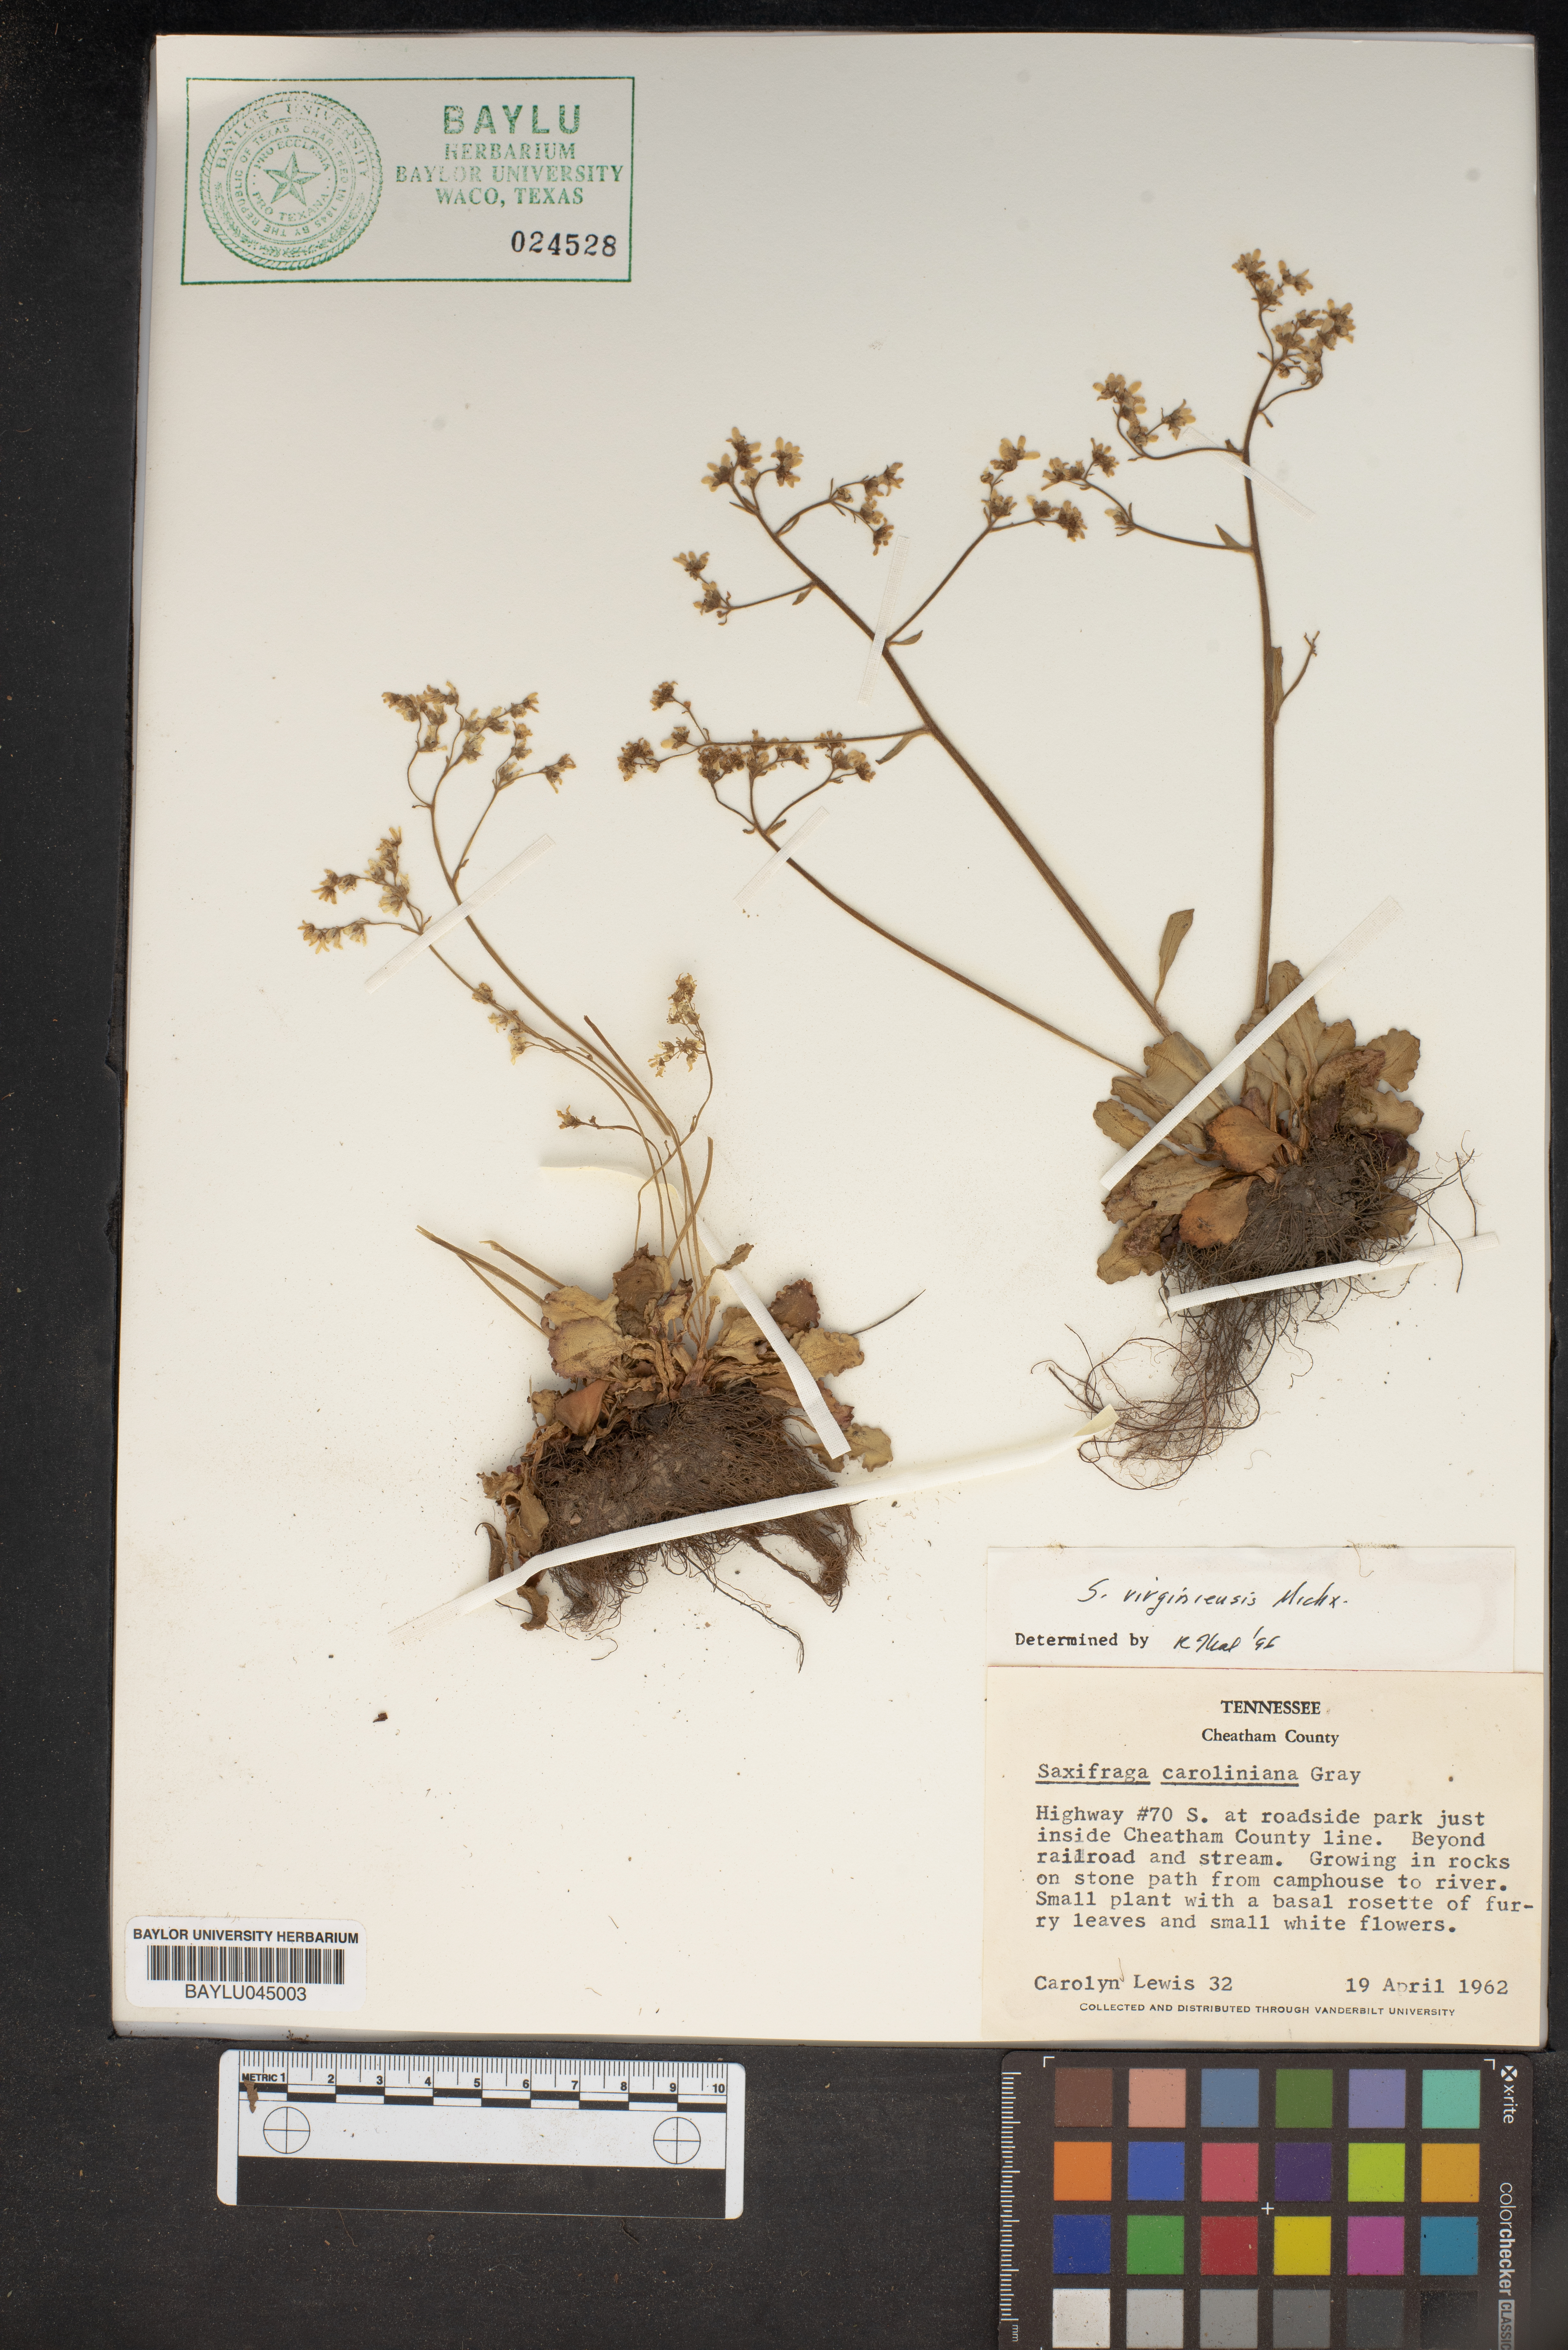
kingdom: Plantae
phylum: Tracheophyta
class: Magnoliopsida
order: Saxifragales
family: Saxifragaceae
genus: Micranthes
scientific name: Micranthes caroliniana
